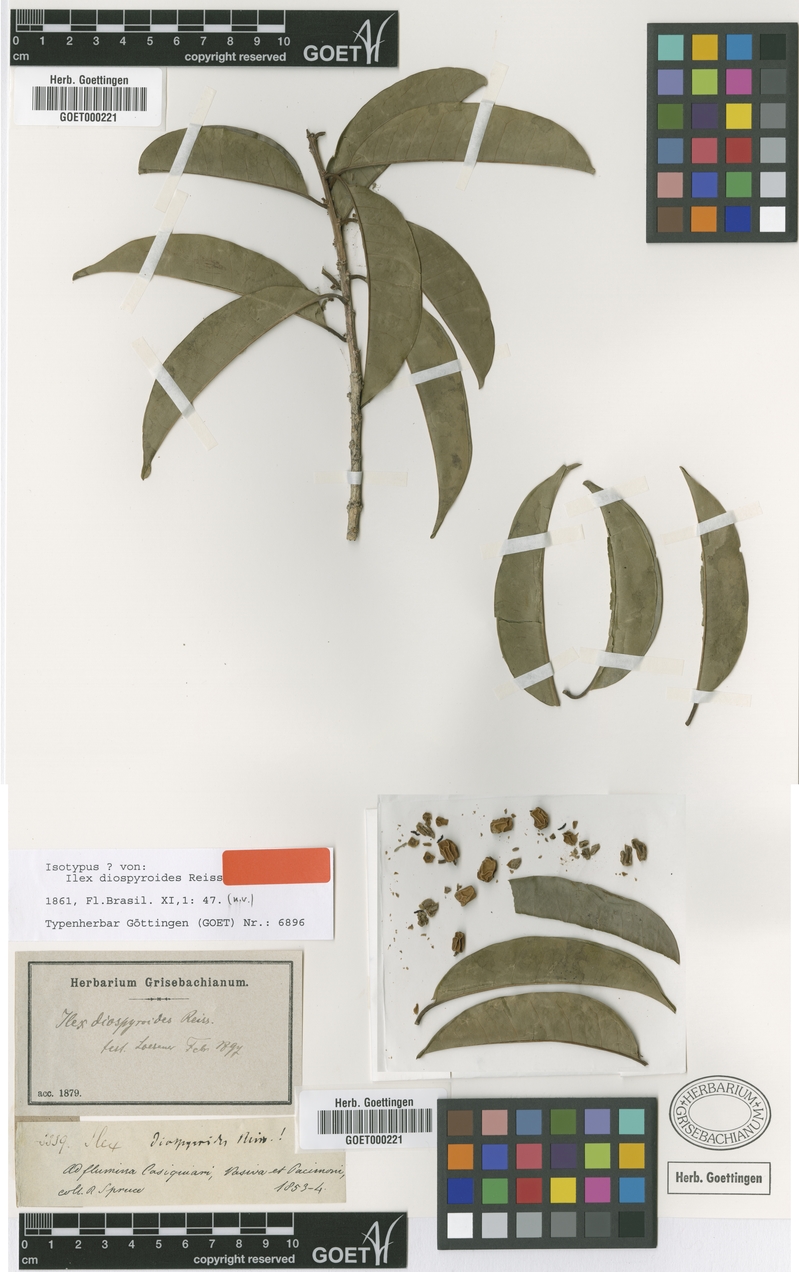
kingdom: Plantae
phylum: Tracheophyta
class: Magnoliopsida
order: Aquifoliales
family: Aquifoliaceae
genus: Ilex
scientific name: Ilex diospyroides
